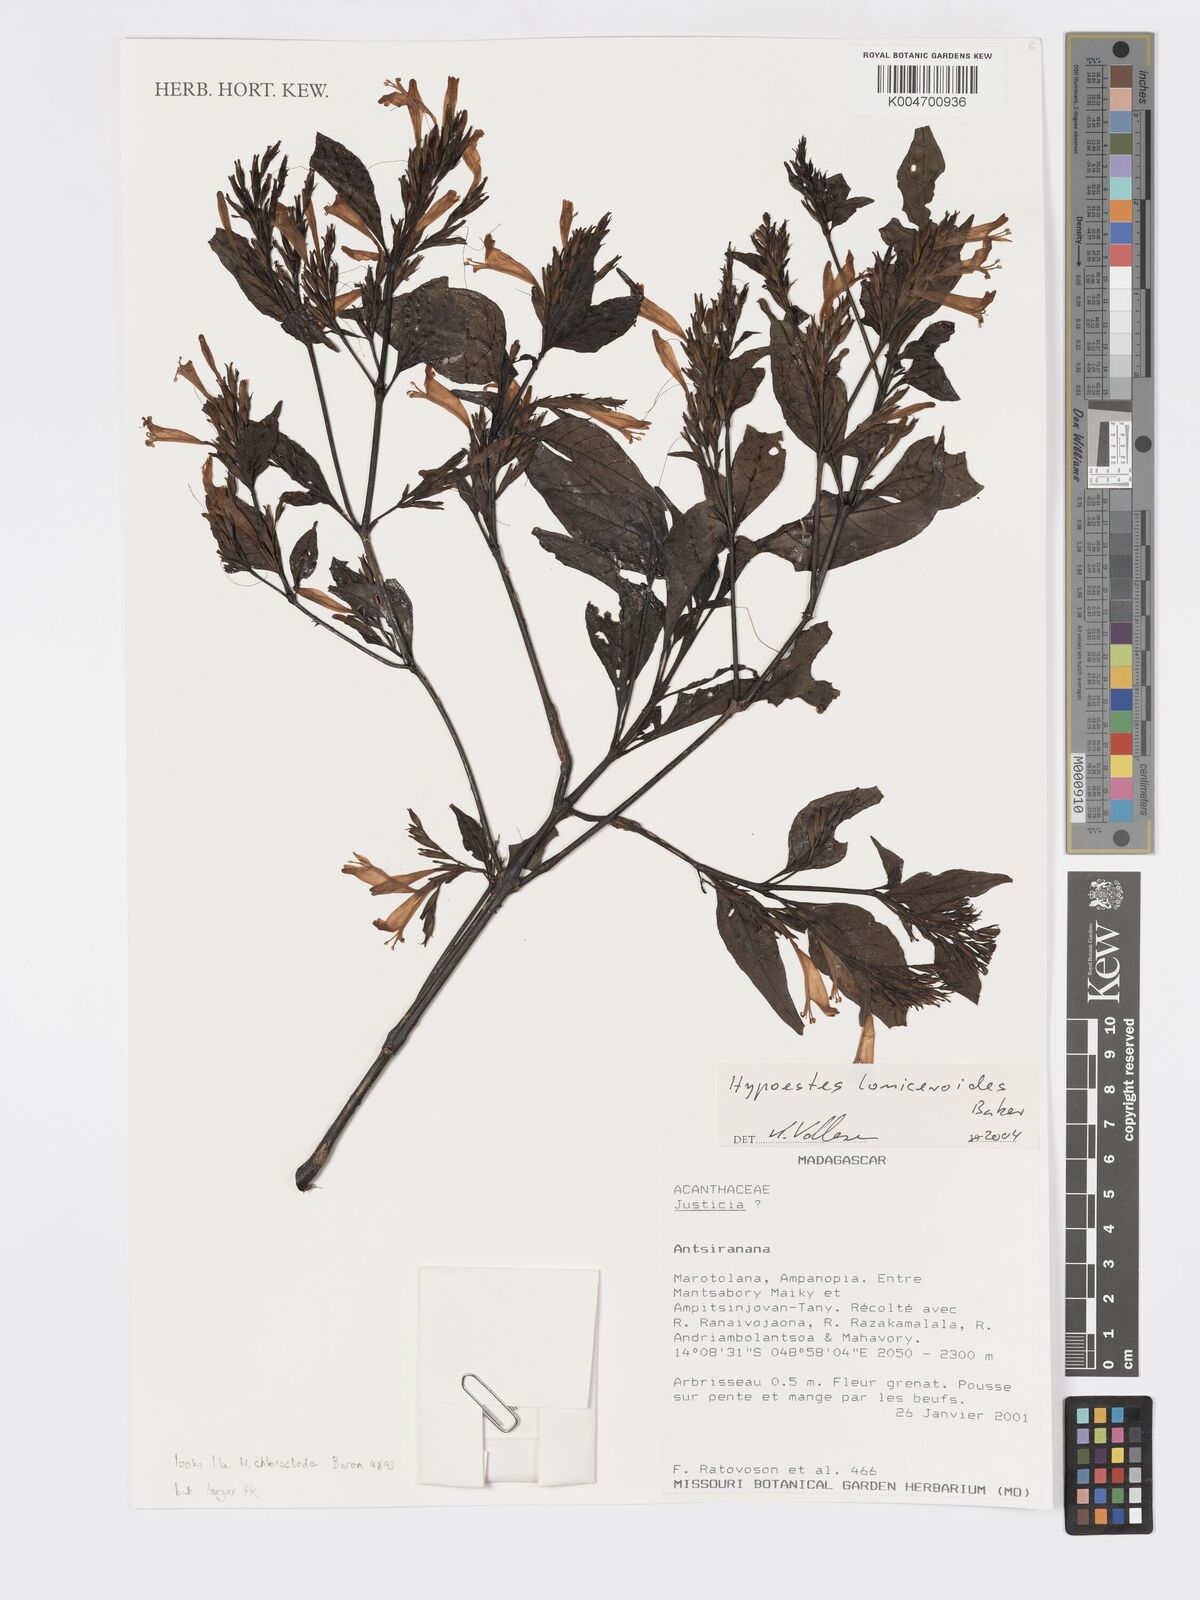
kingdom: Plantae
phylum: Tracheophyta
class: Magnoliopsida
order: Lamiales
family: Acanthaceae
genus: Hypoestes
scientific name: Hypoestes
